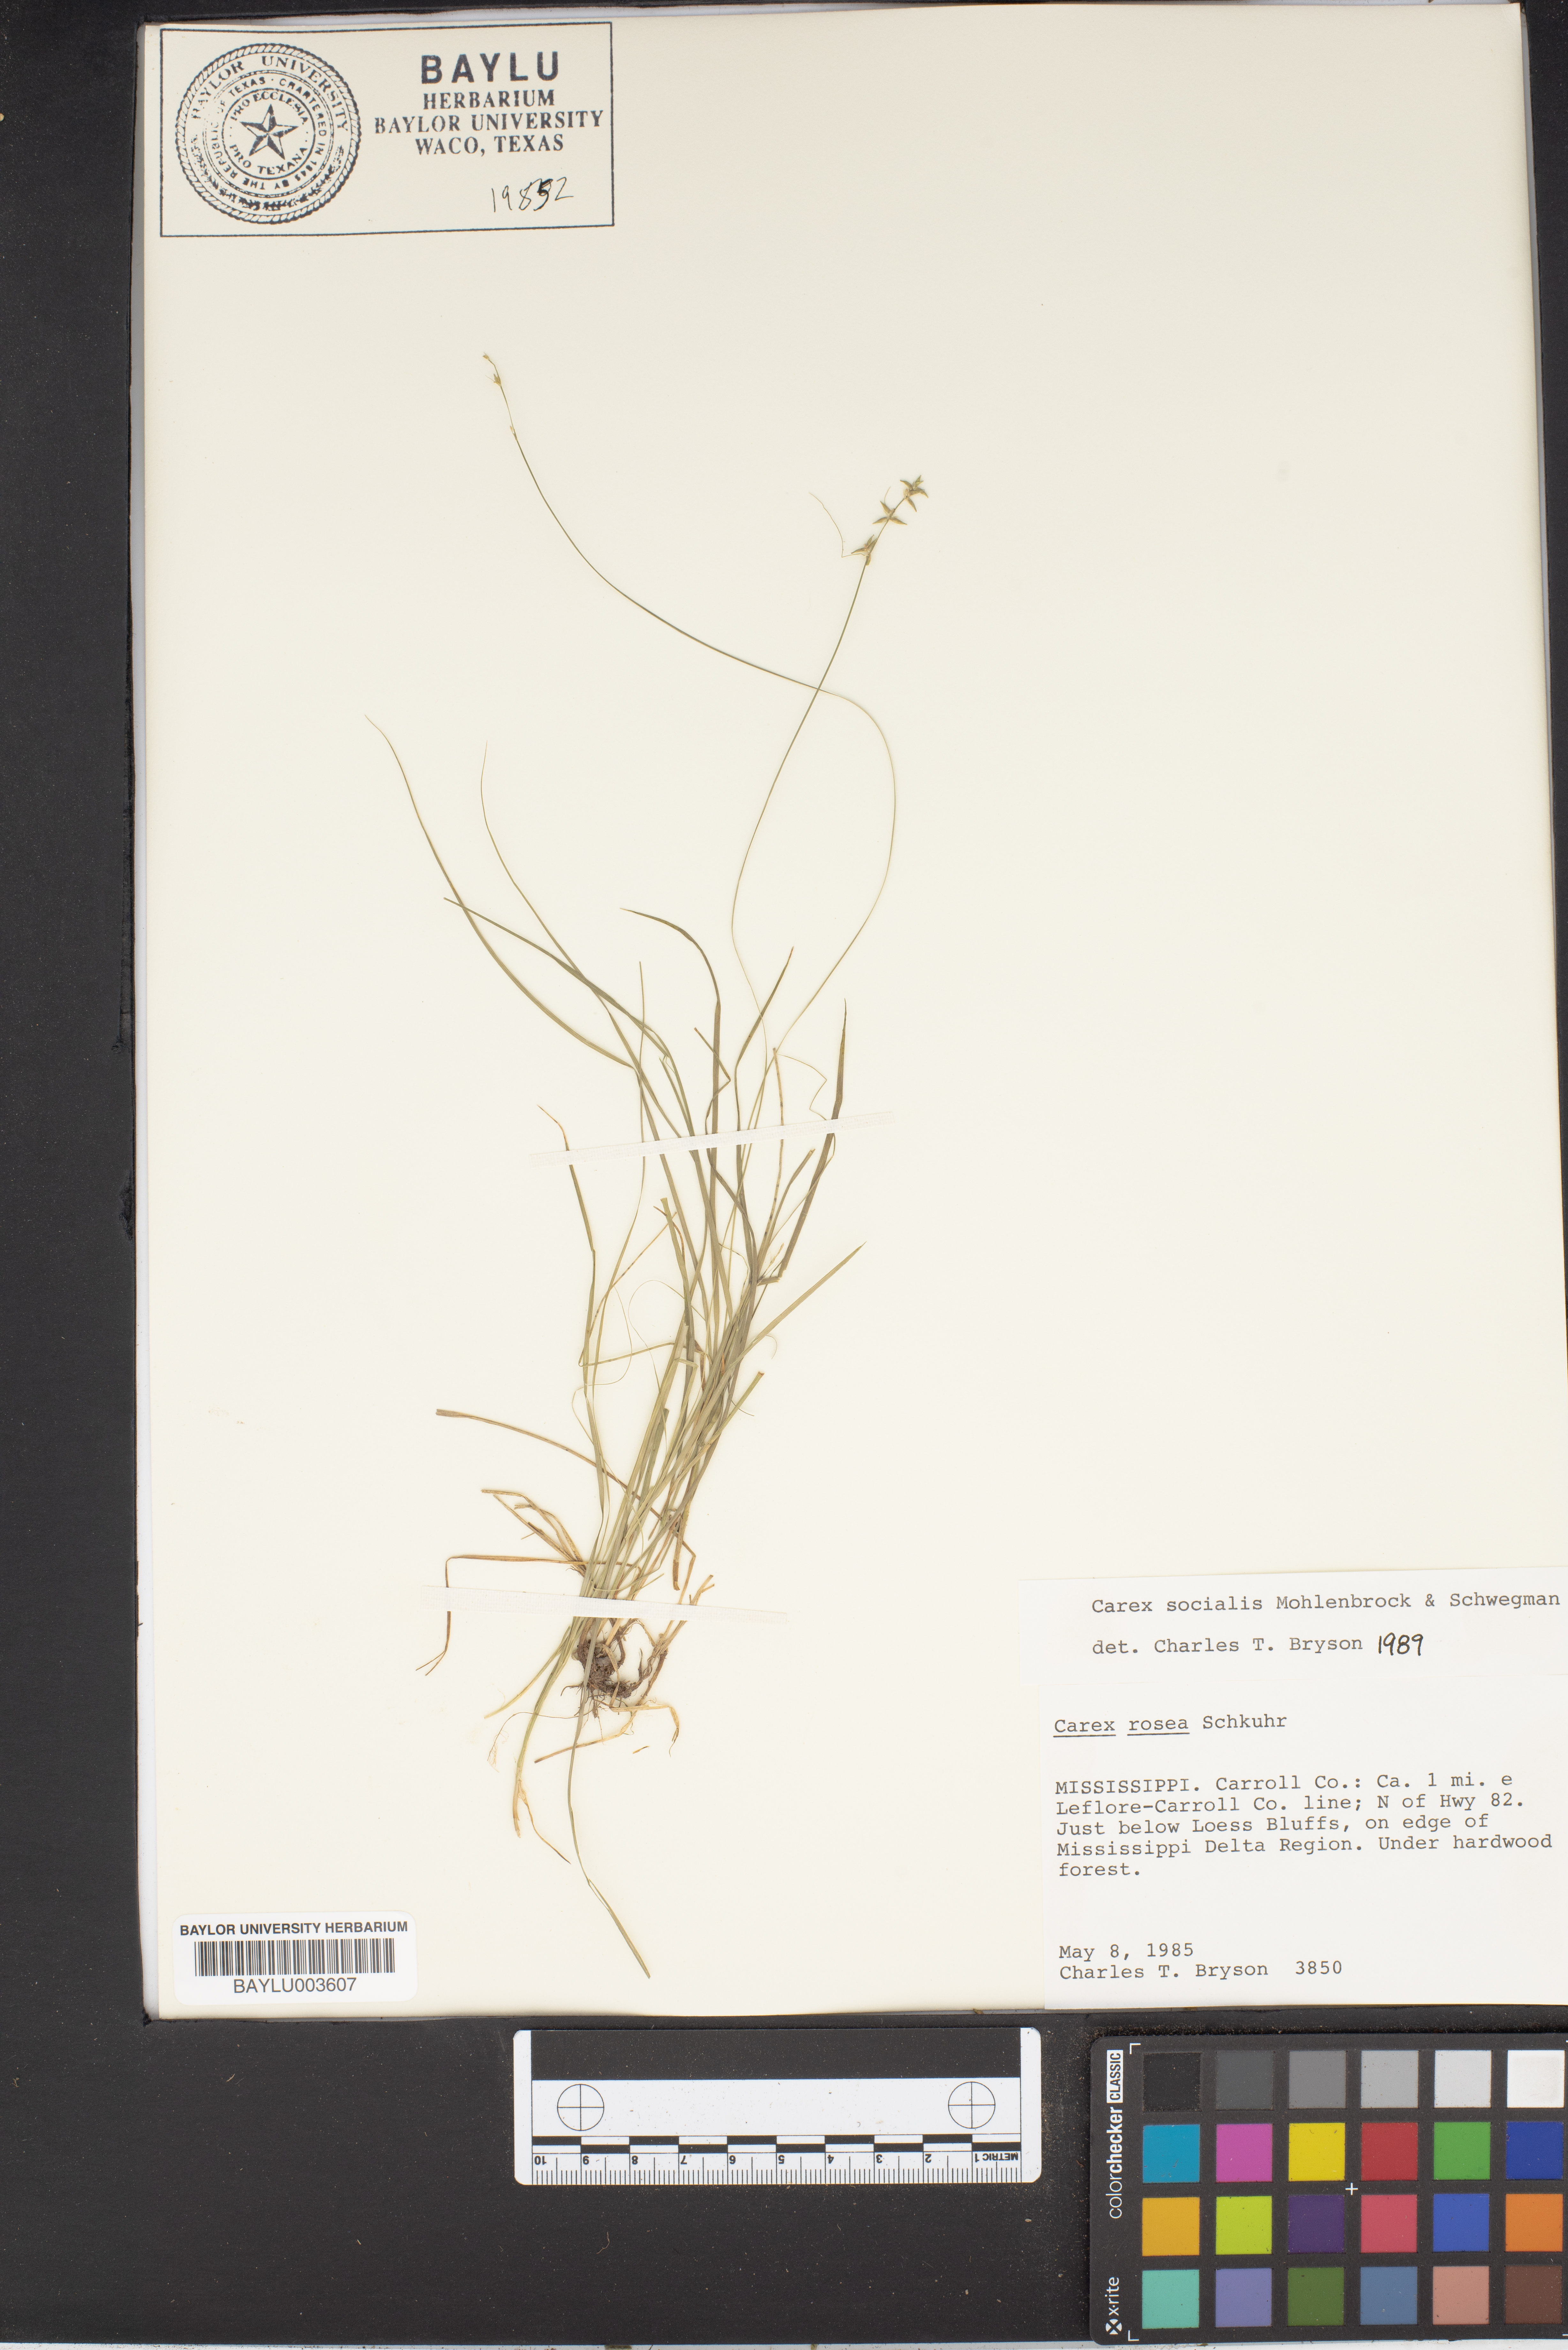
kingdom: Plantae
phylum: Tracheophyta
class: Liliopsida
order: Poales
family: Cyperaceae
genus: Carex
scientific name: Carex socialis
